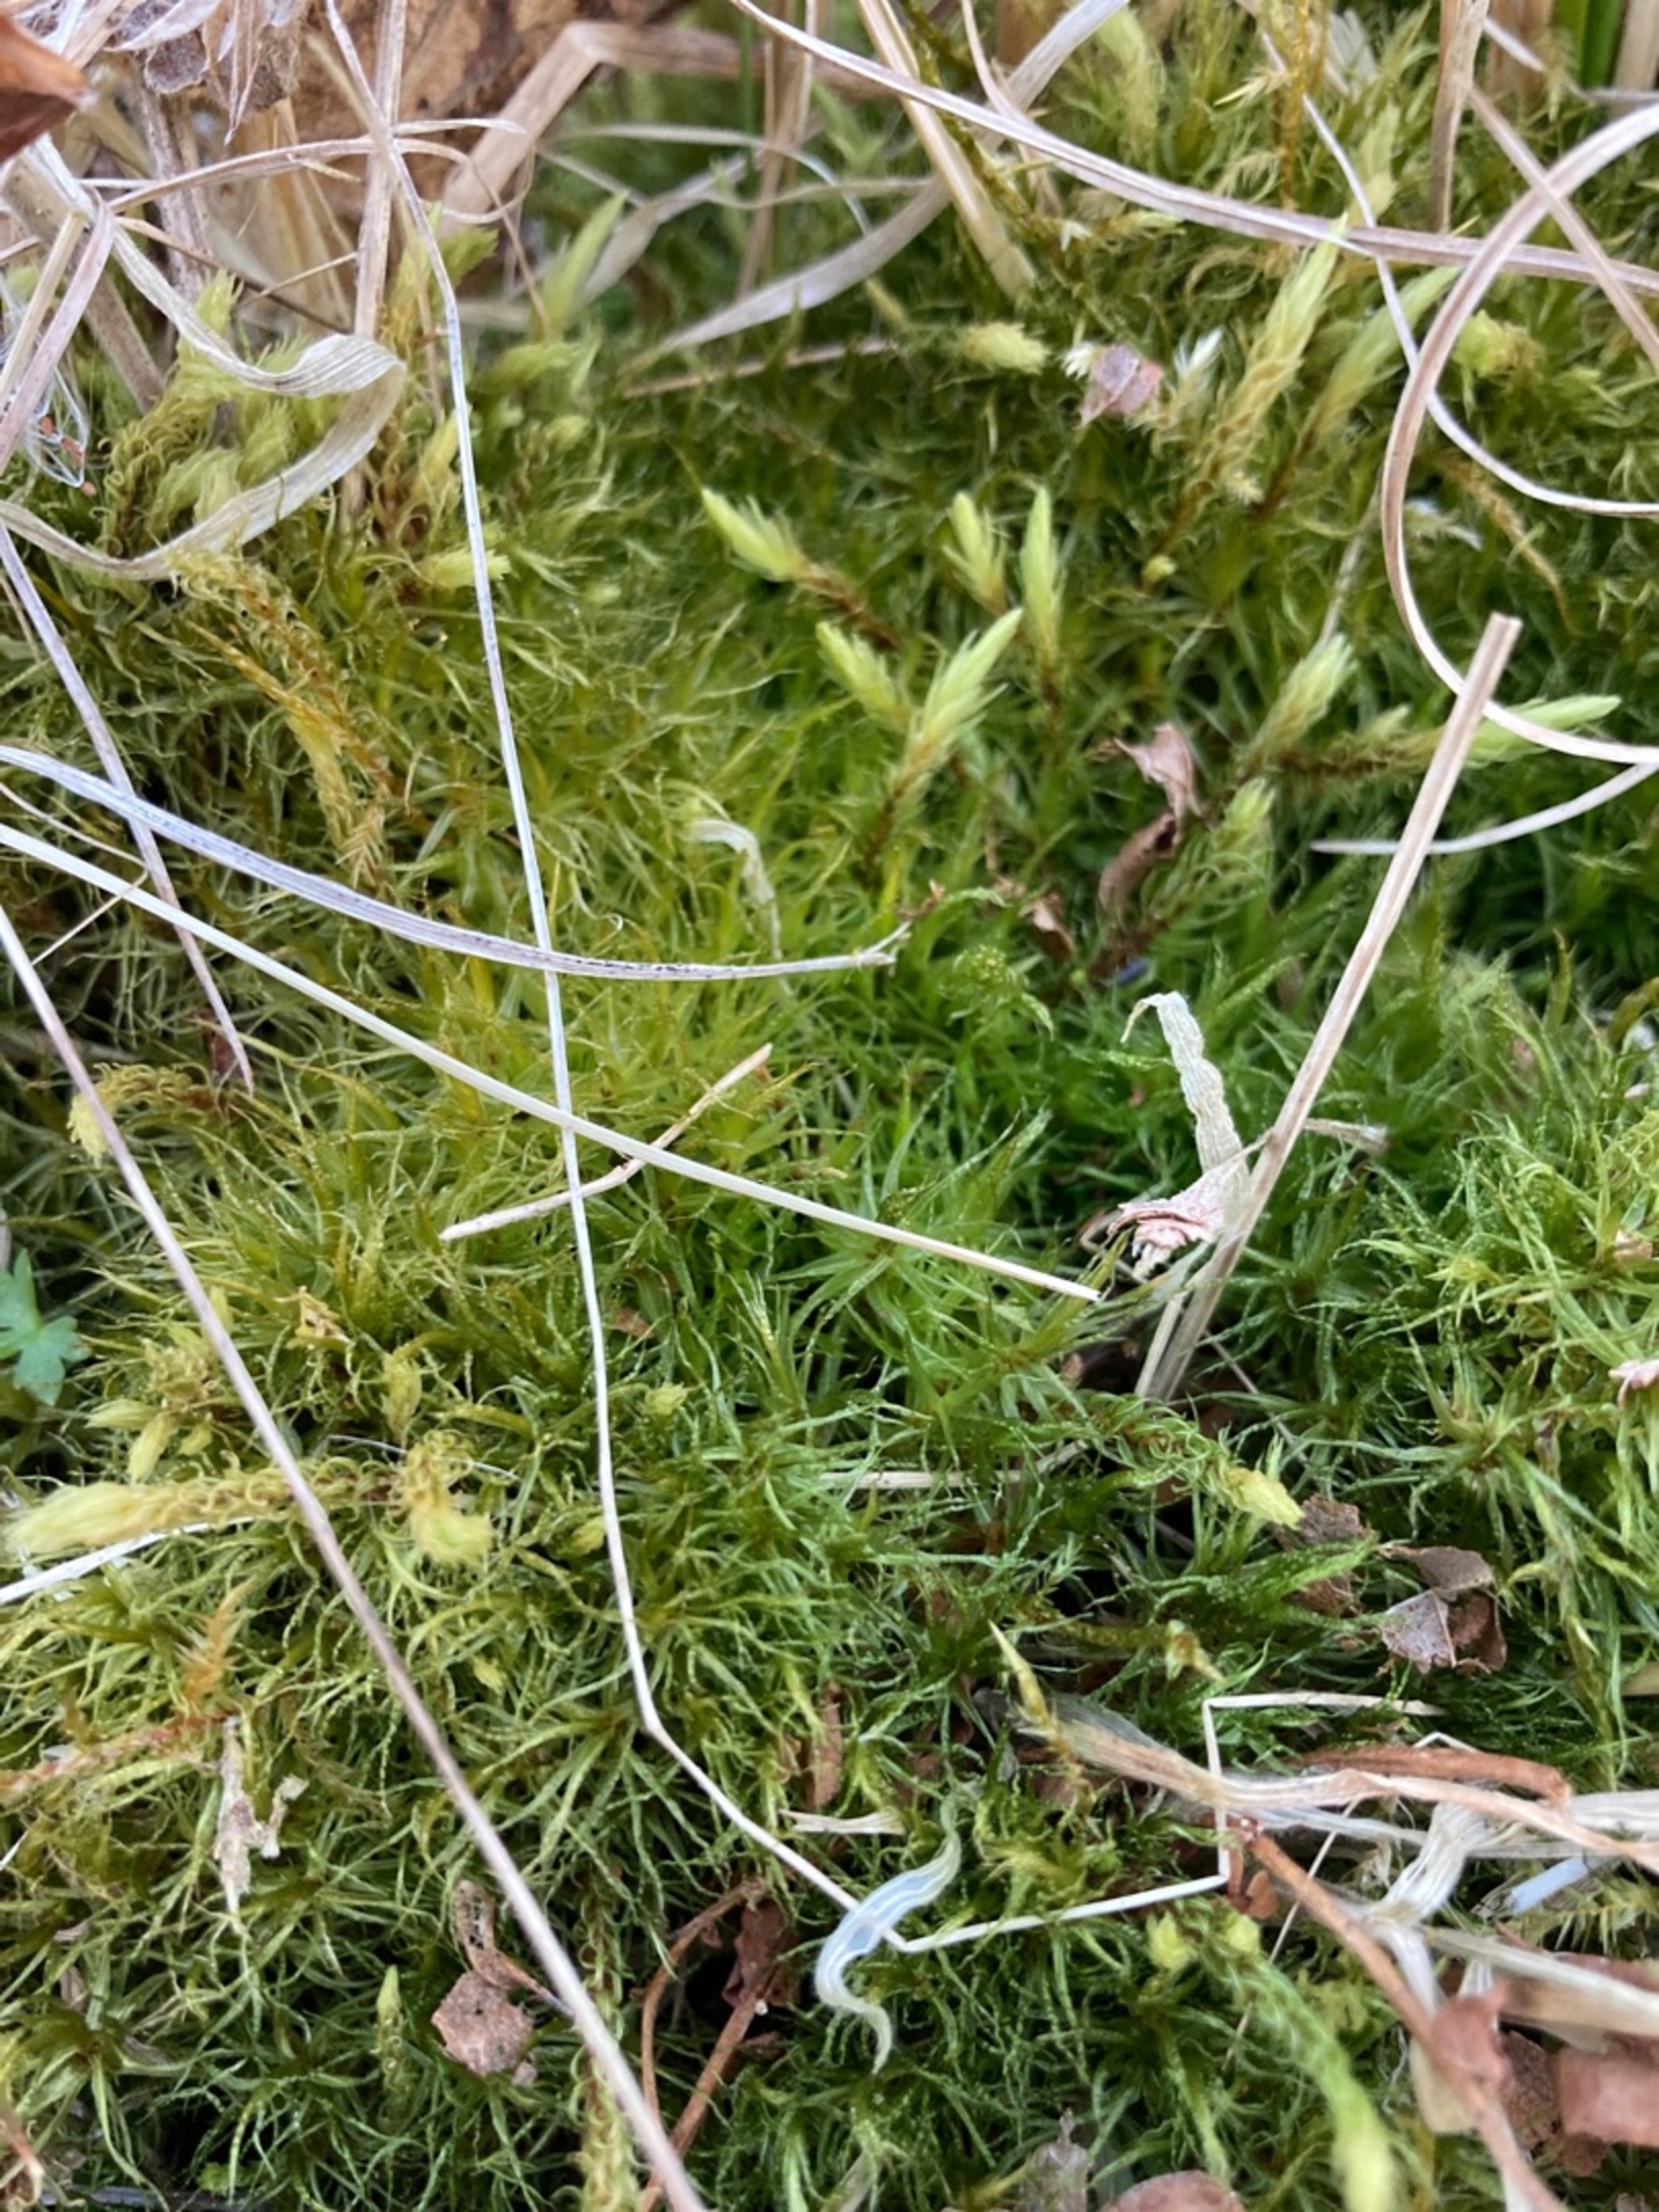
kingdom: Plantae
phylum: Bryophyta
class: Bryopsida
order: Dicranales
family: Dicranaceae
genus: Dicranum
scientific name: Dicranum bonjeanii
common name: Kær-kløvtand
